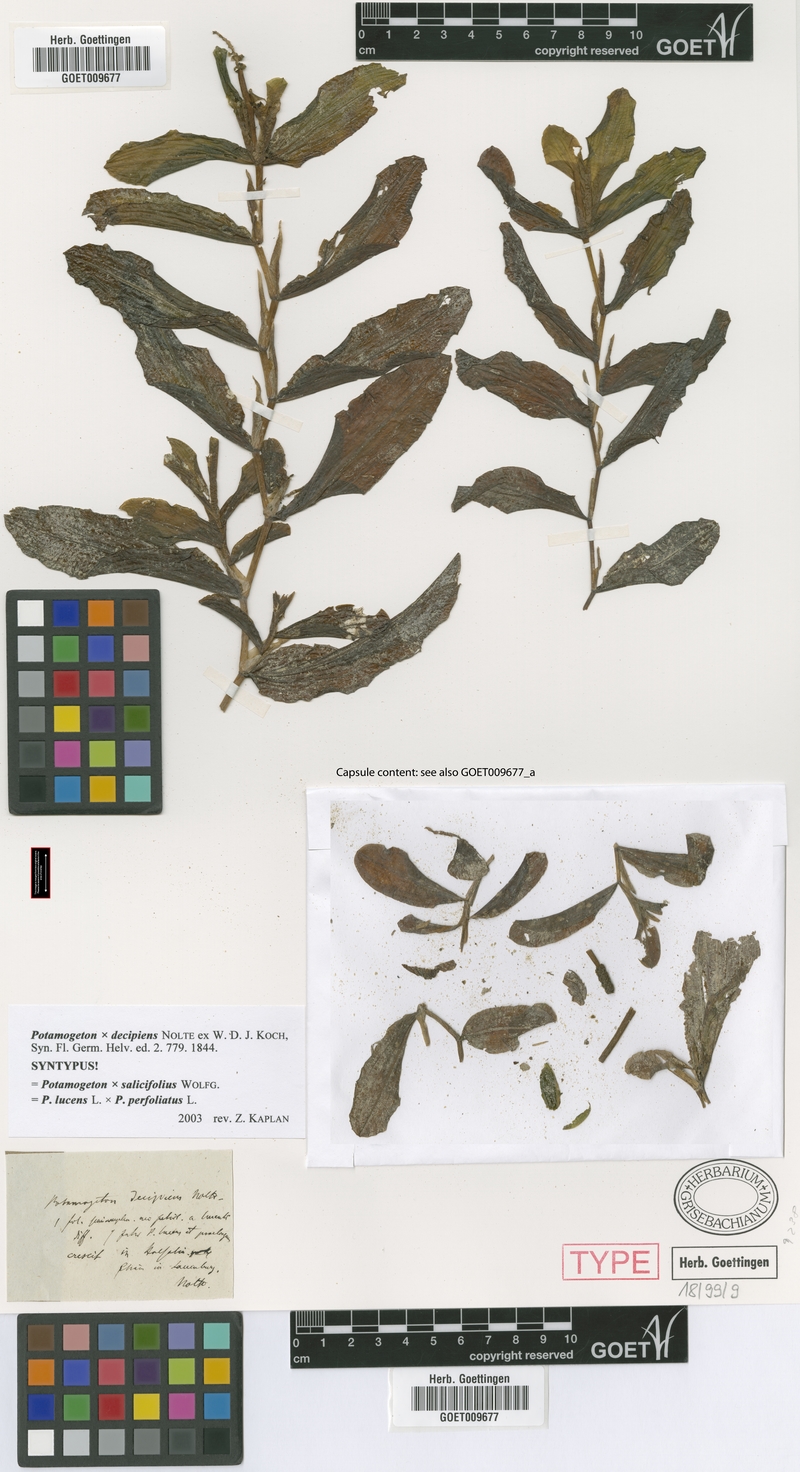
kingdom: Plantae
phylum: Tracheophyta
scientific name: Tracheophyta
